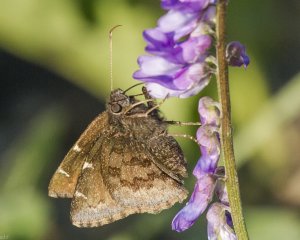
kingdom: Animalia
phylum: Arthropoda
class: Insecta
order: Lepidoptera
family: Hesperiidae
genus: Autochton
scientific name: Autochton
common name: Northern Cloudywing
